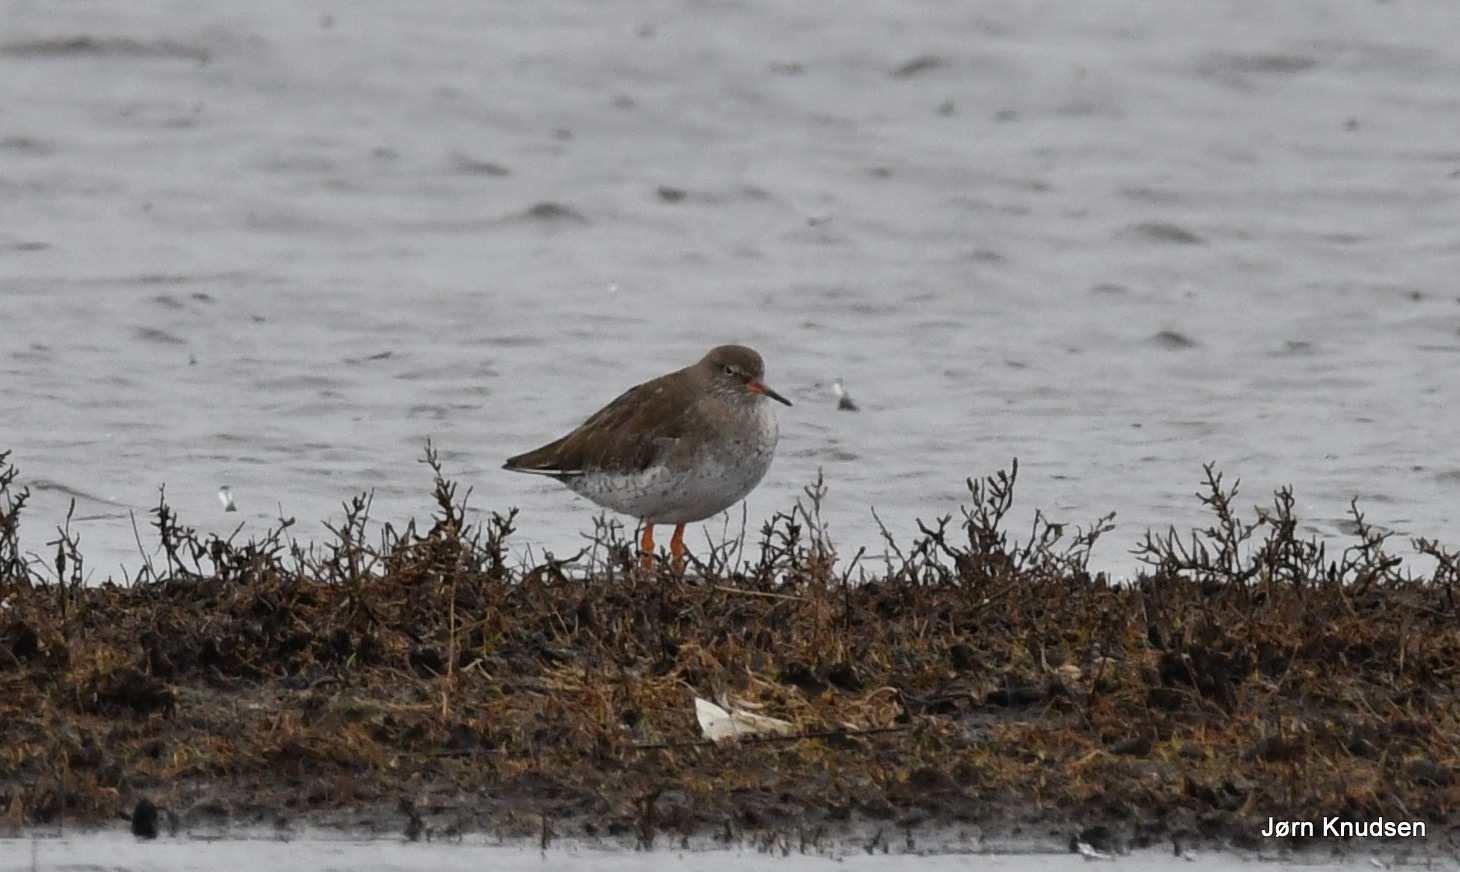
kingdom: Animalia
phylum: Chordata
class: Aves
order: Charadriiformes
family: Scolopacidae
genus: Tringa
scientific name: Tringa totanus
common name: Rødben
